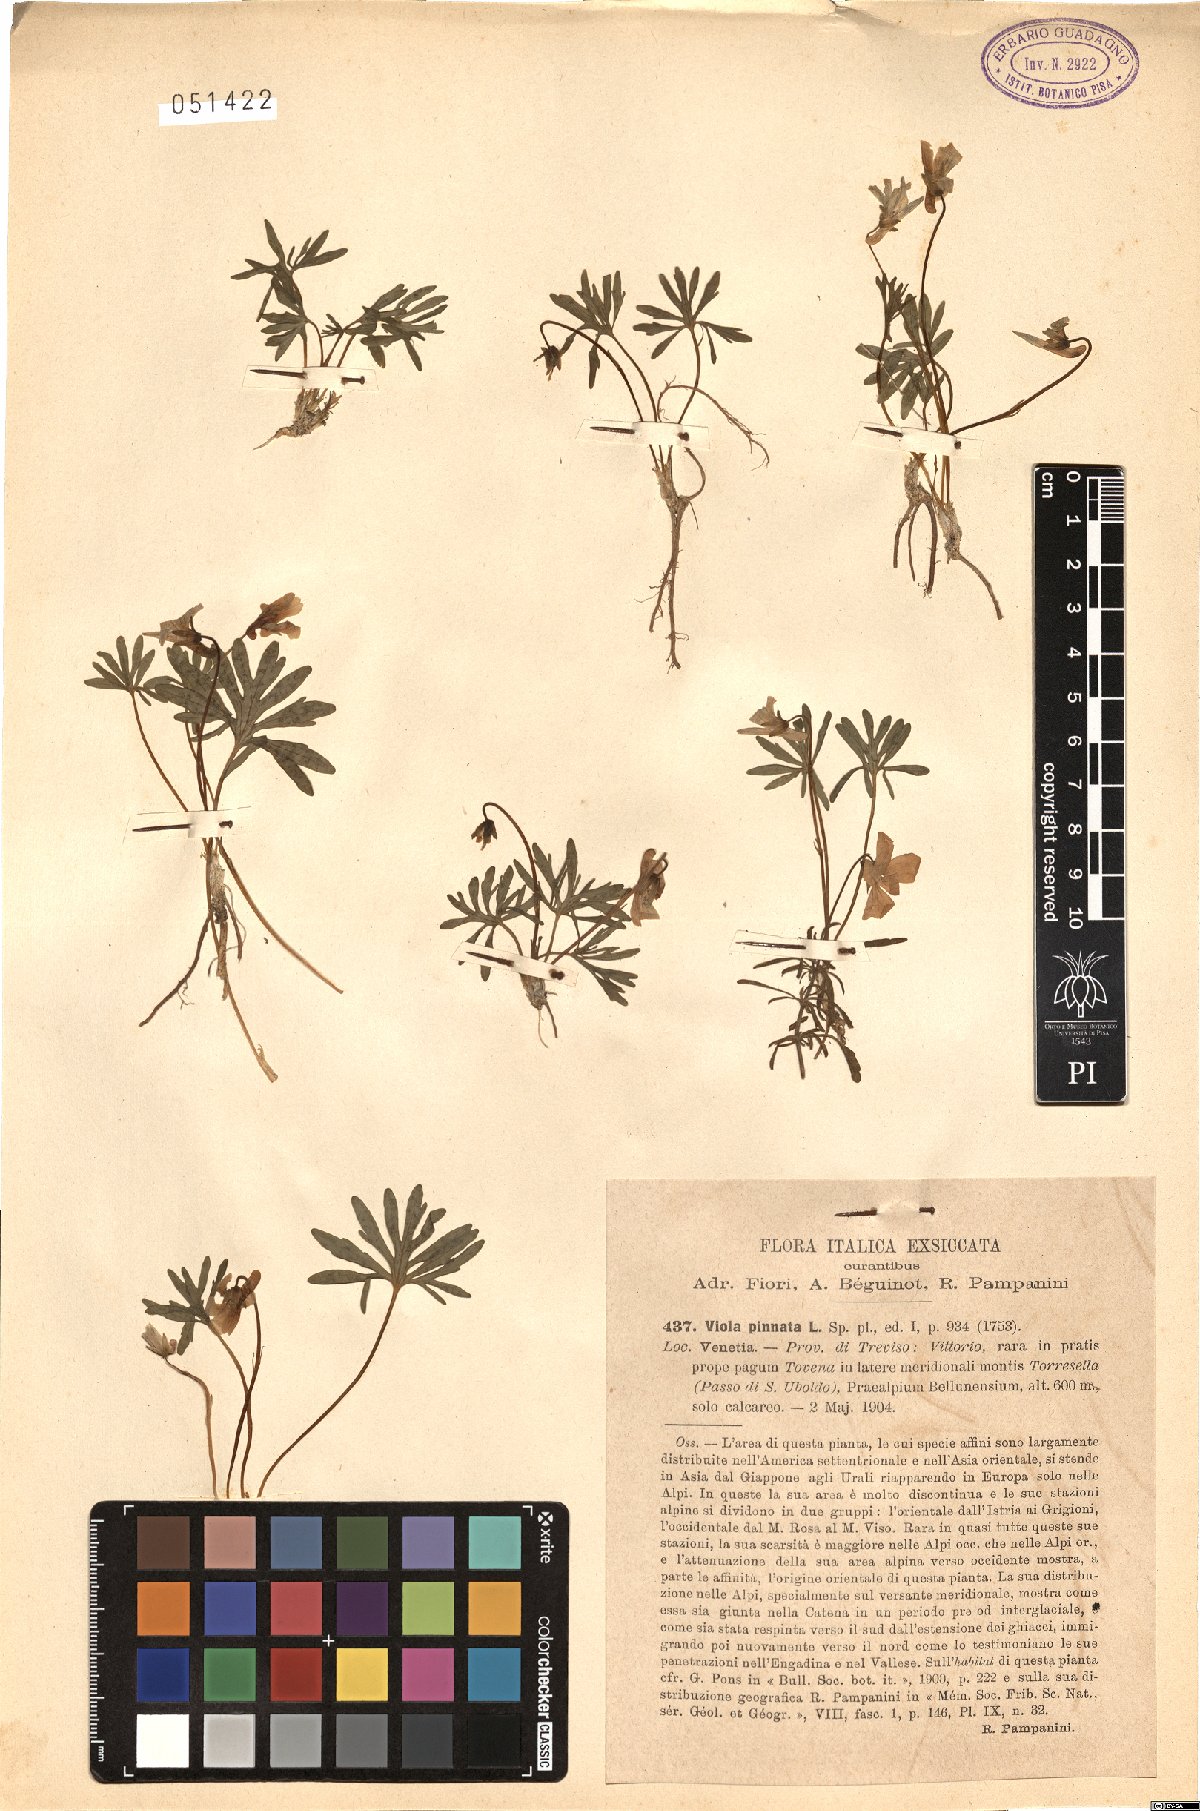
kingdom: Plantae
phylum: Tracheophyta
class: Magnoliopsida
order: Malpighiales
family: Violaceae
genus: Viola
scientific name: Viola pinnata
